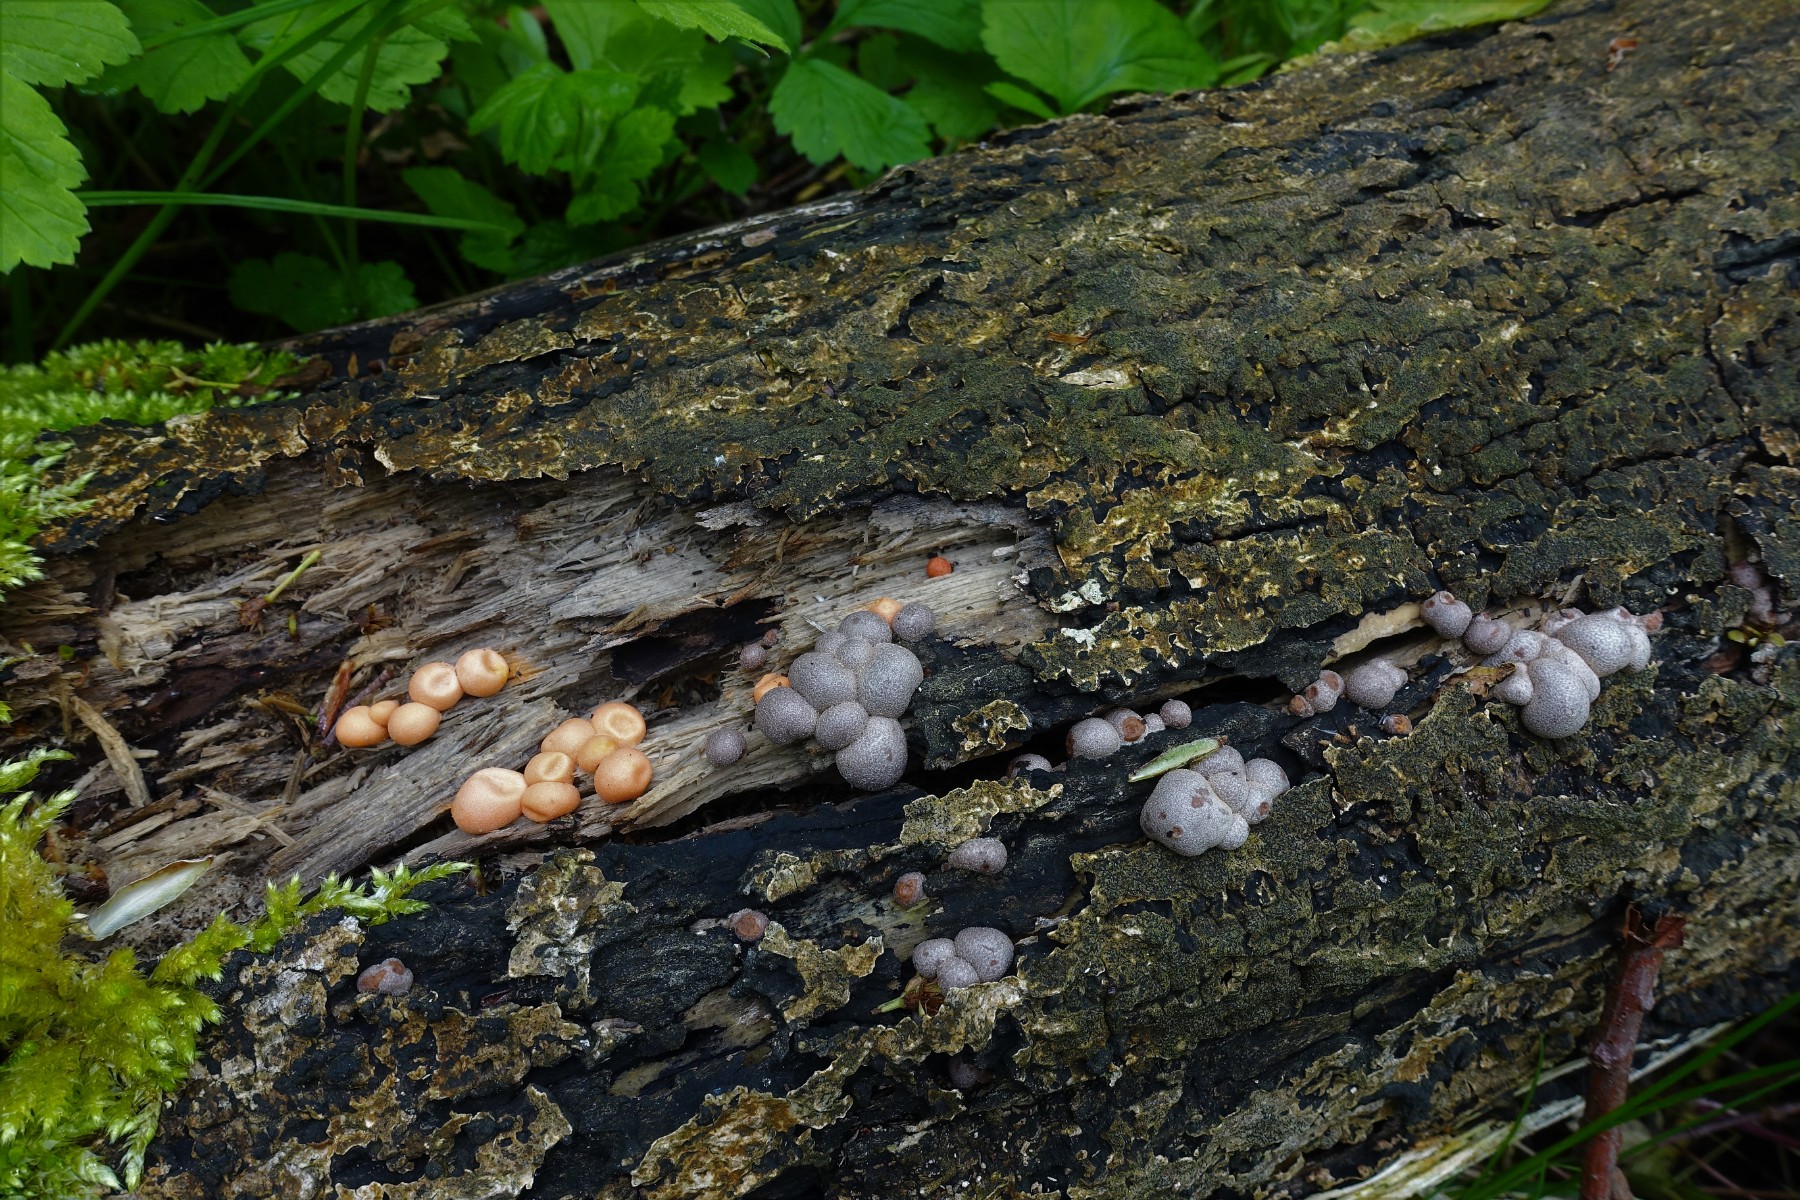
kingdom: Protozoa
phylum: Mycetozoa
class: Myxomycetes
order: Cribrariales
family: Tubiferaceae
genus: Lycogala
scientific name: Lycogala epidendrum
